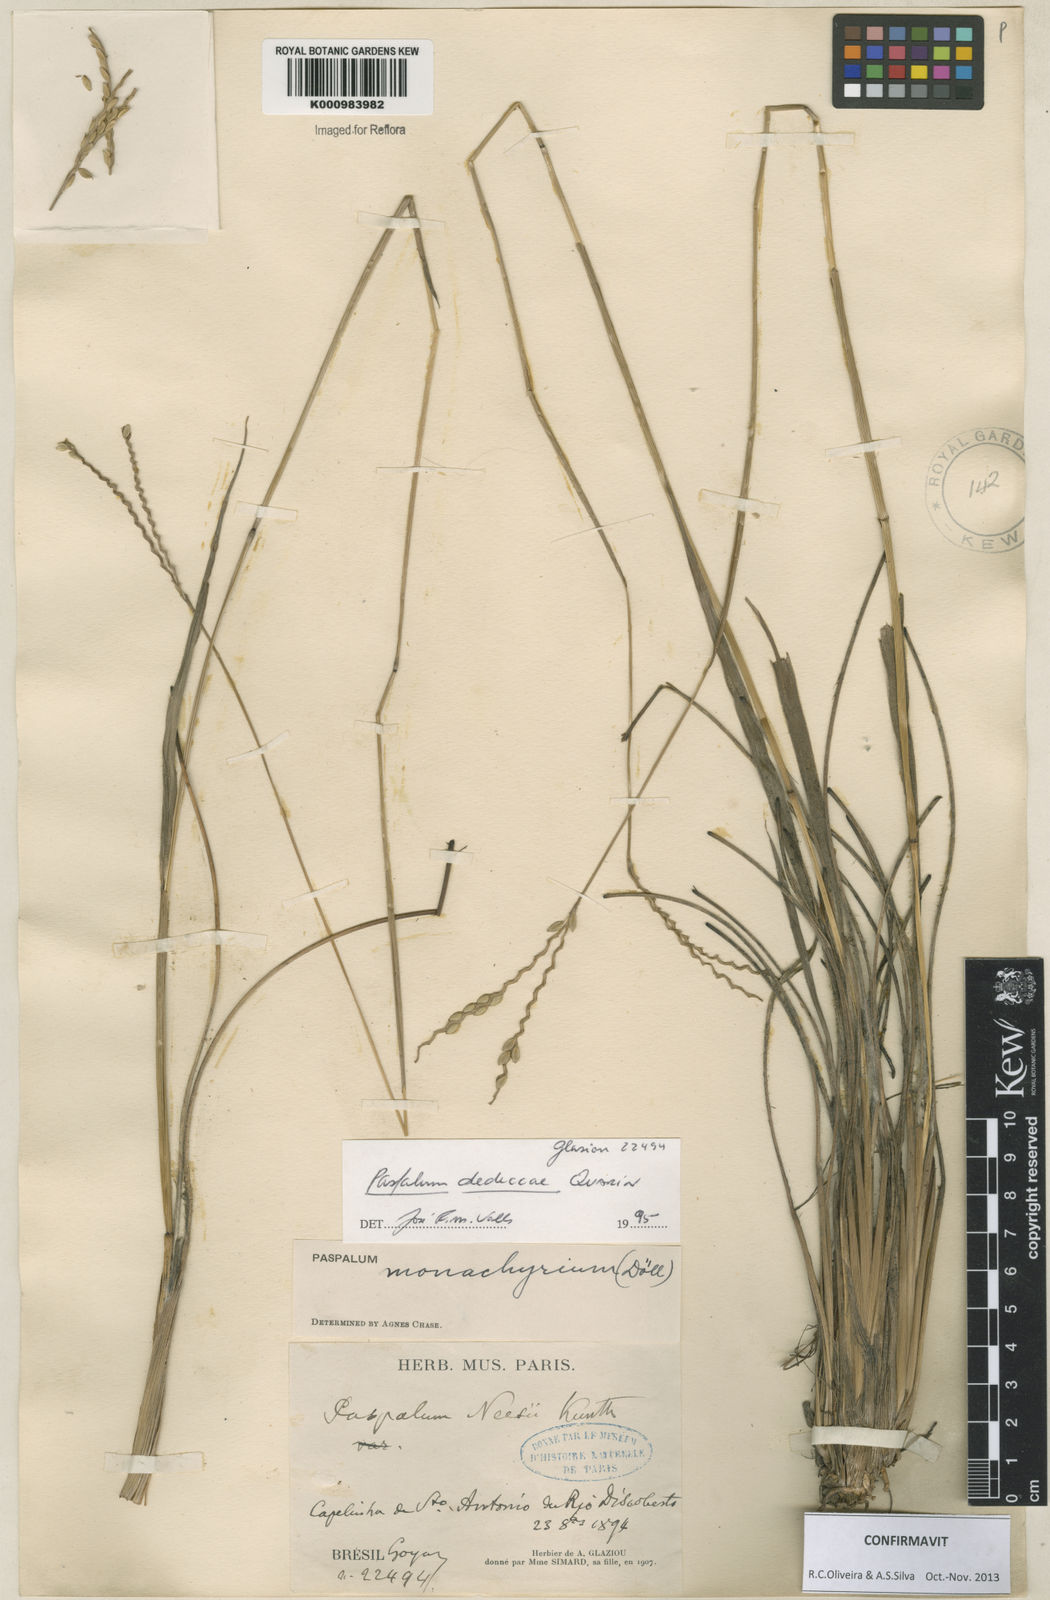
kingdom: Plantae
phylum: Tracheophyta
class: Liliopsida
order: Poales
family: Poaceae
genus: Paspalum
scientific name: Paspalum dedeccae
